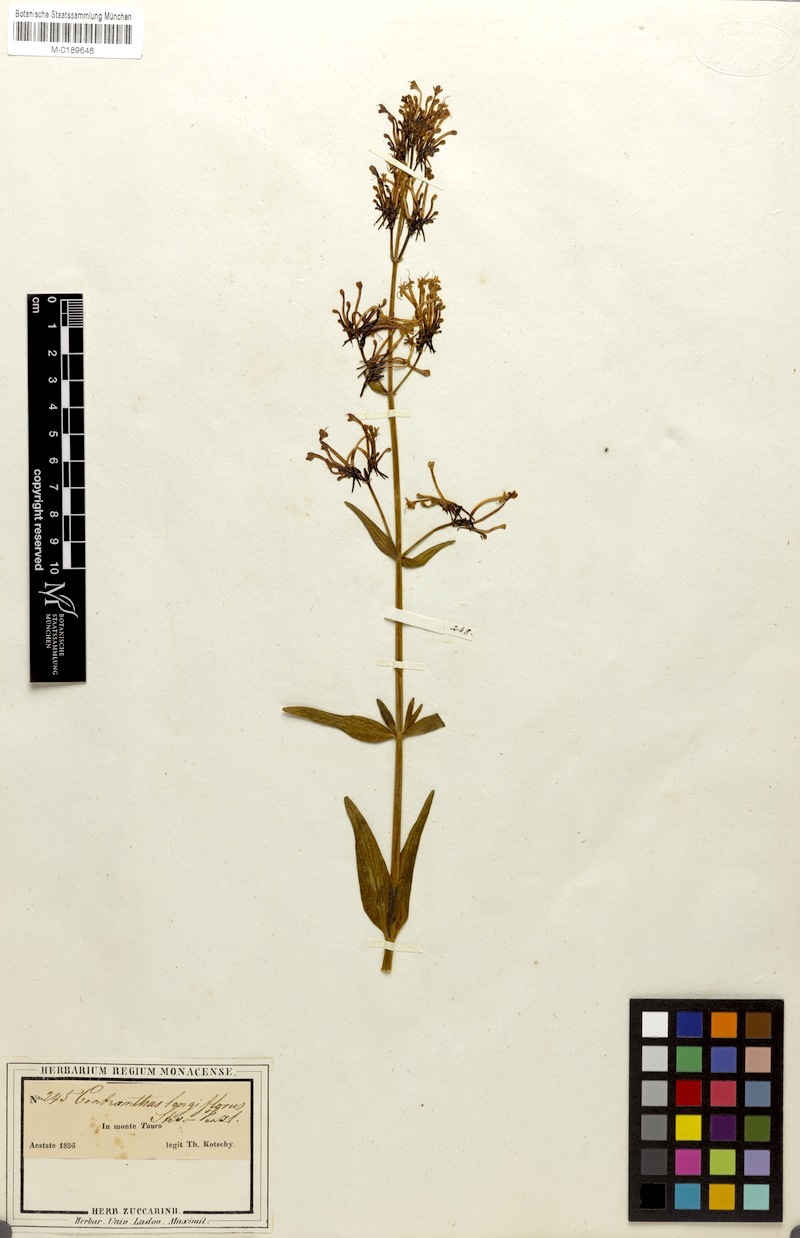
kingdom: Plantae
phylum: Tracheophyta
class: Magnoliopsida
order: Dipsacales
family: Caprifoliaceae
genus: Centranthus
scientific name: Centranthus longiflorus
